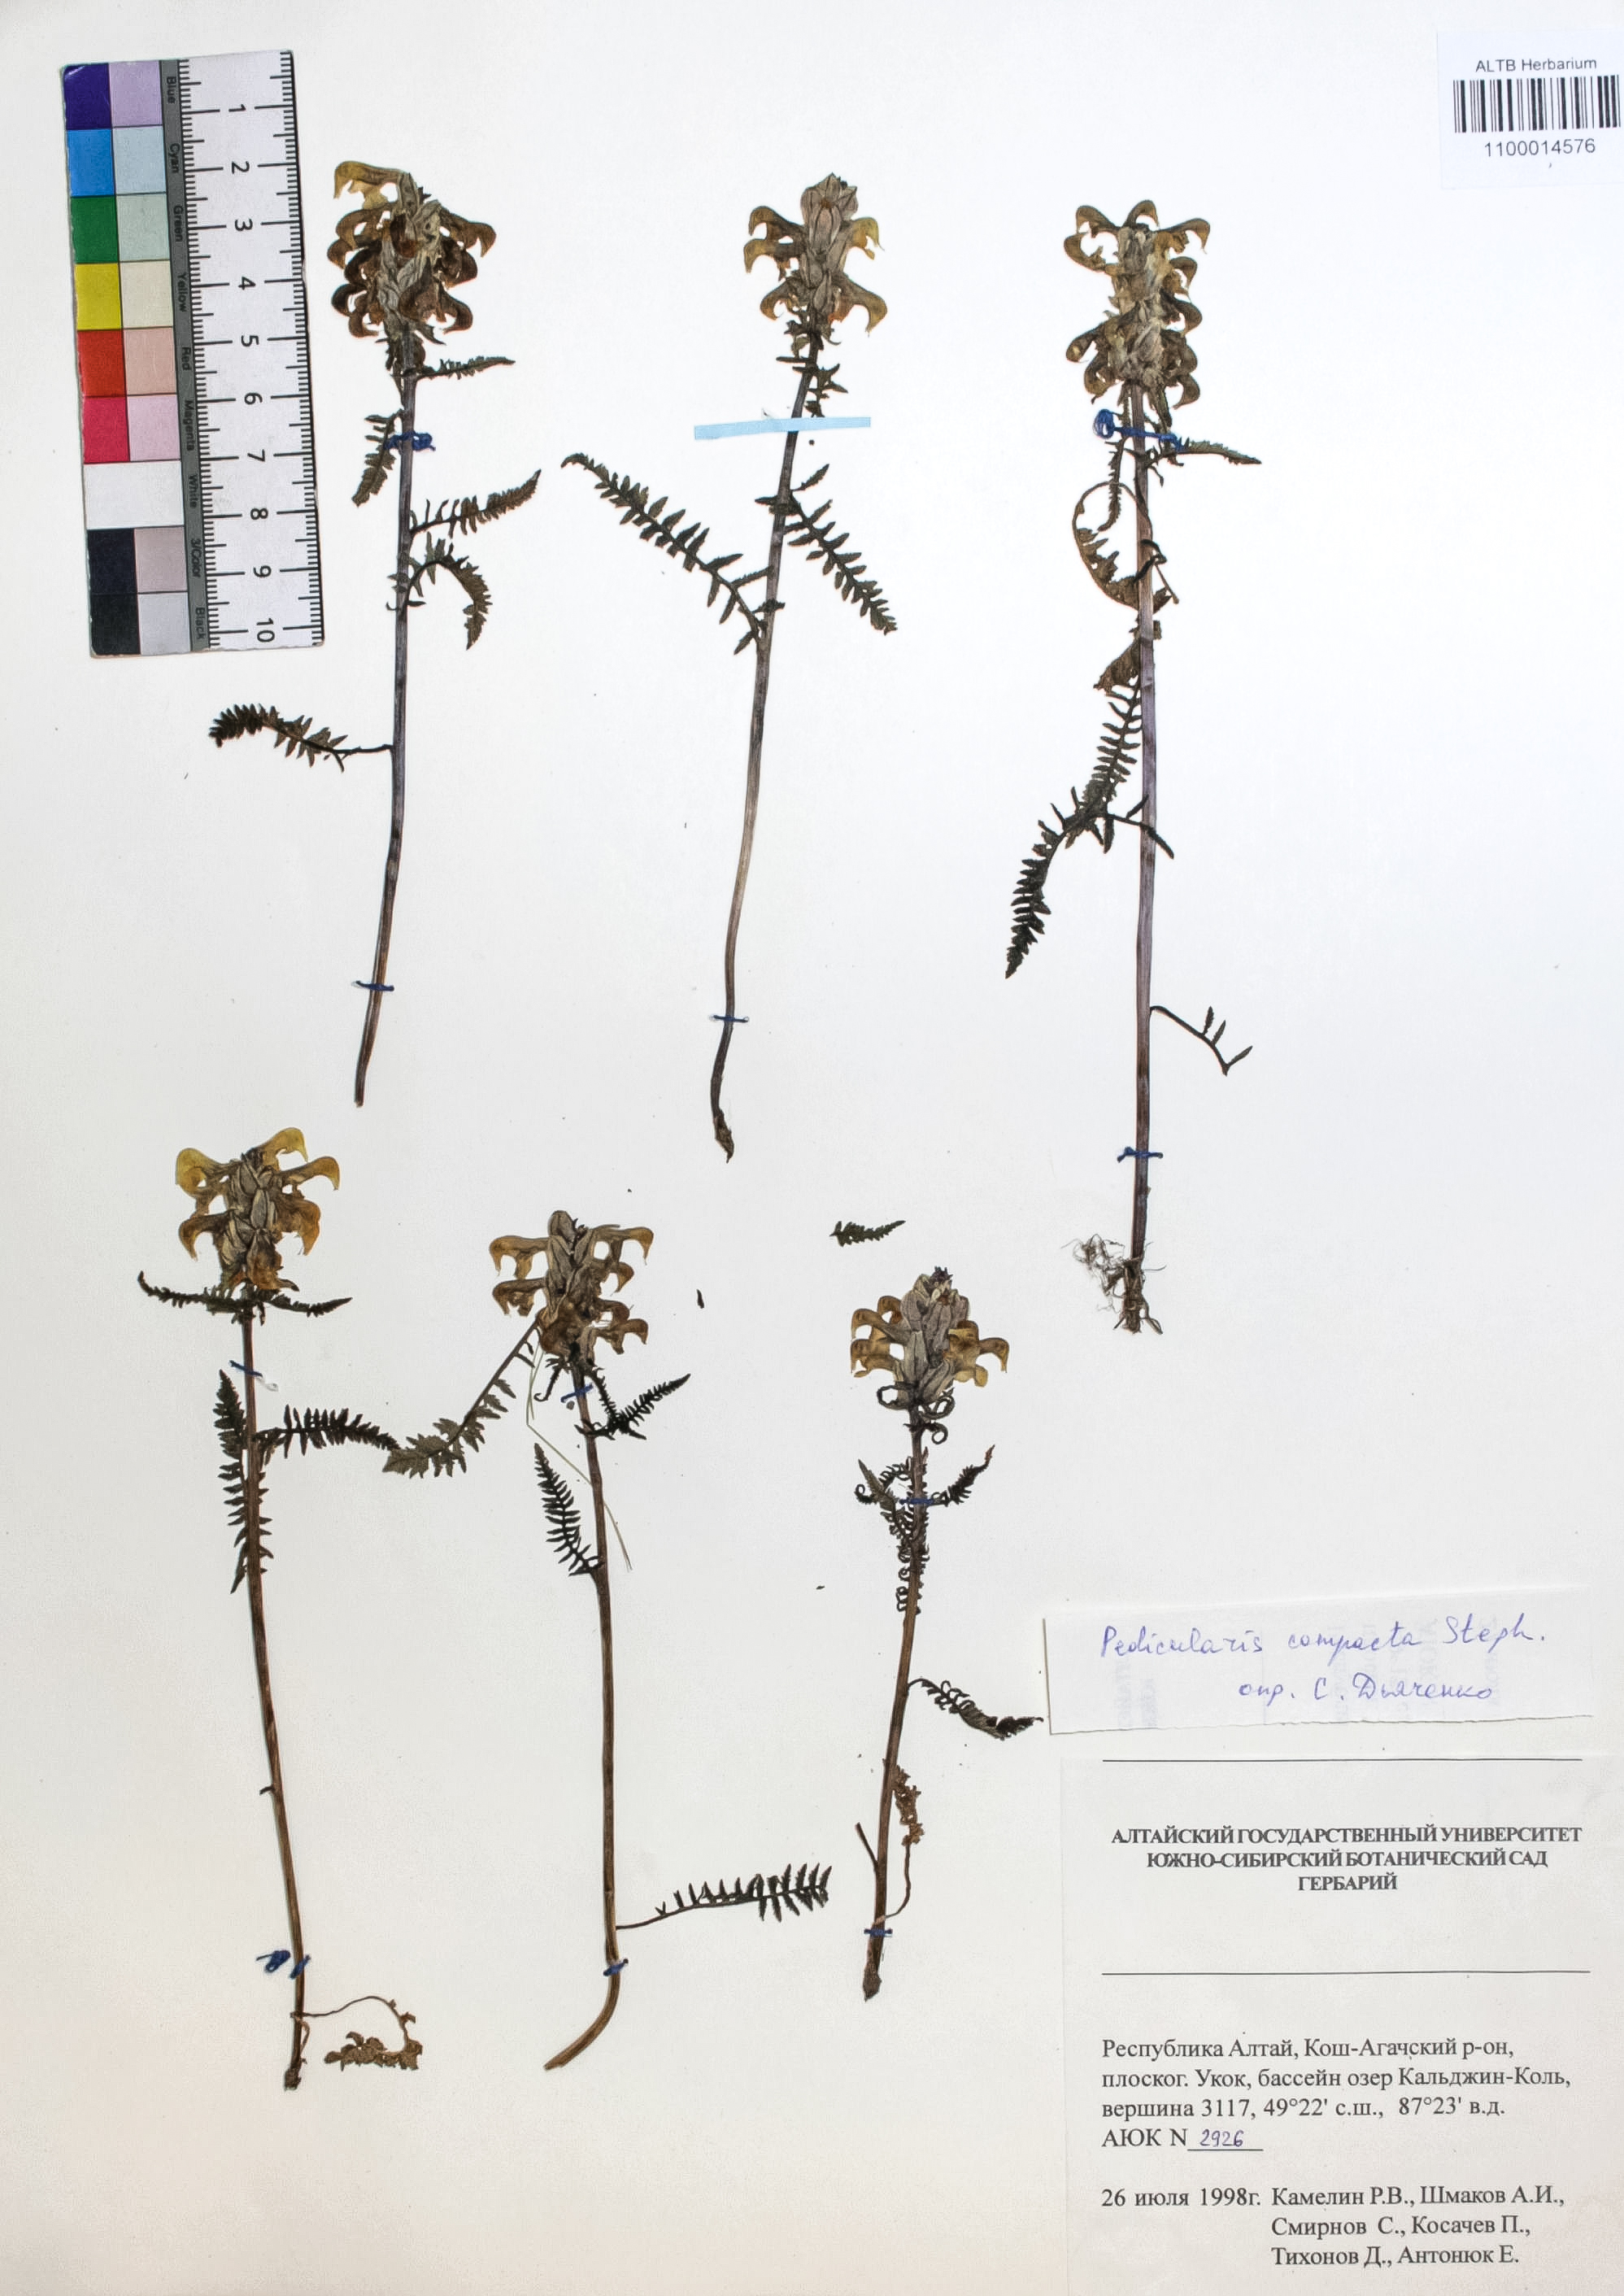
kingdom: Plantae
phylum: Tracheophyta
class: Magnoliopsida
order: Lamiales
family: Orobanchaceae
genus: Pedicularis
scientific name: Pedicularis compacta
